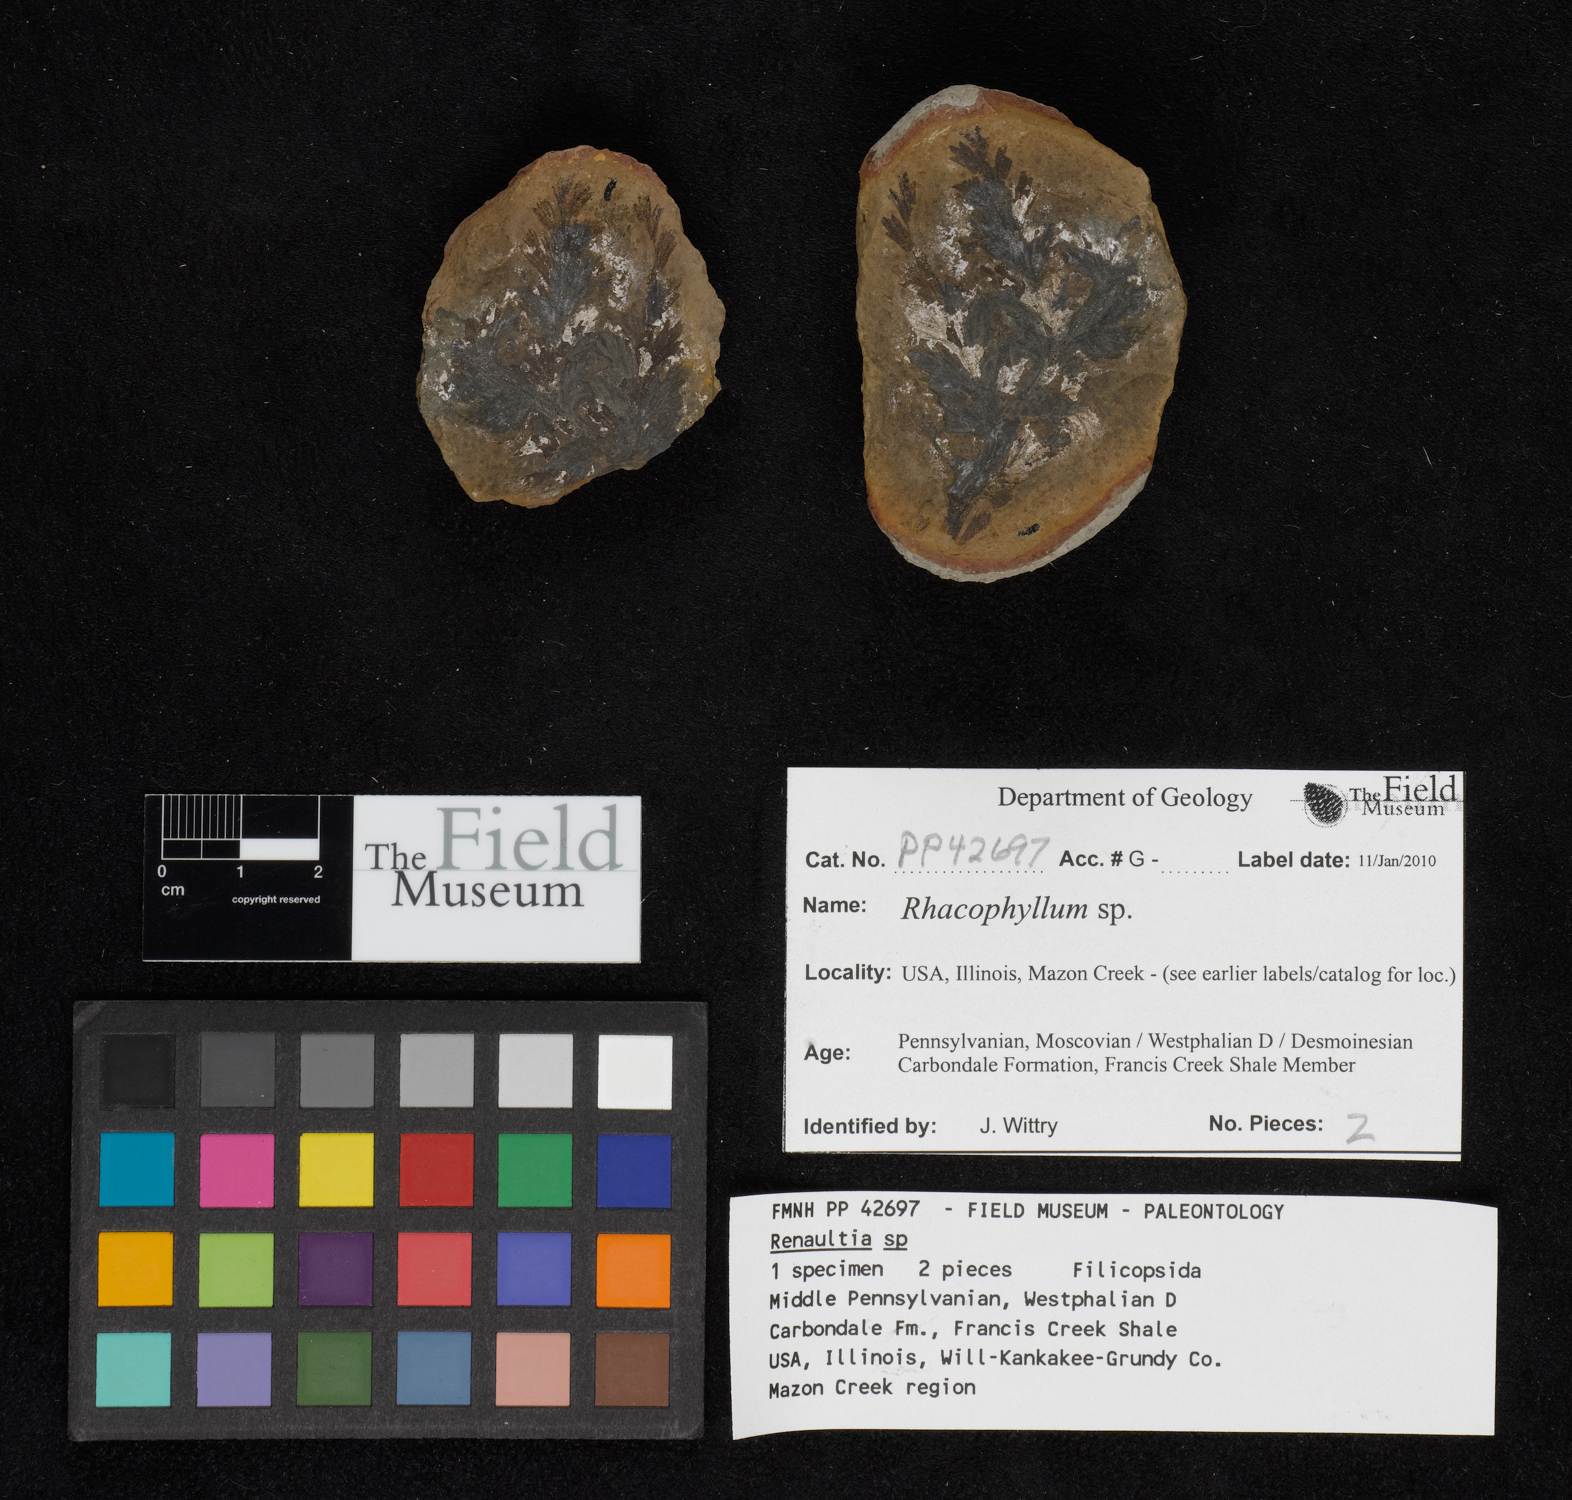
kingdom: Plantae
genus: Rhacophyllum
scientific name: Rhacophyllum
